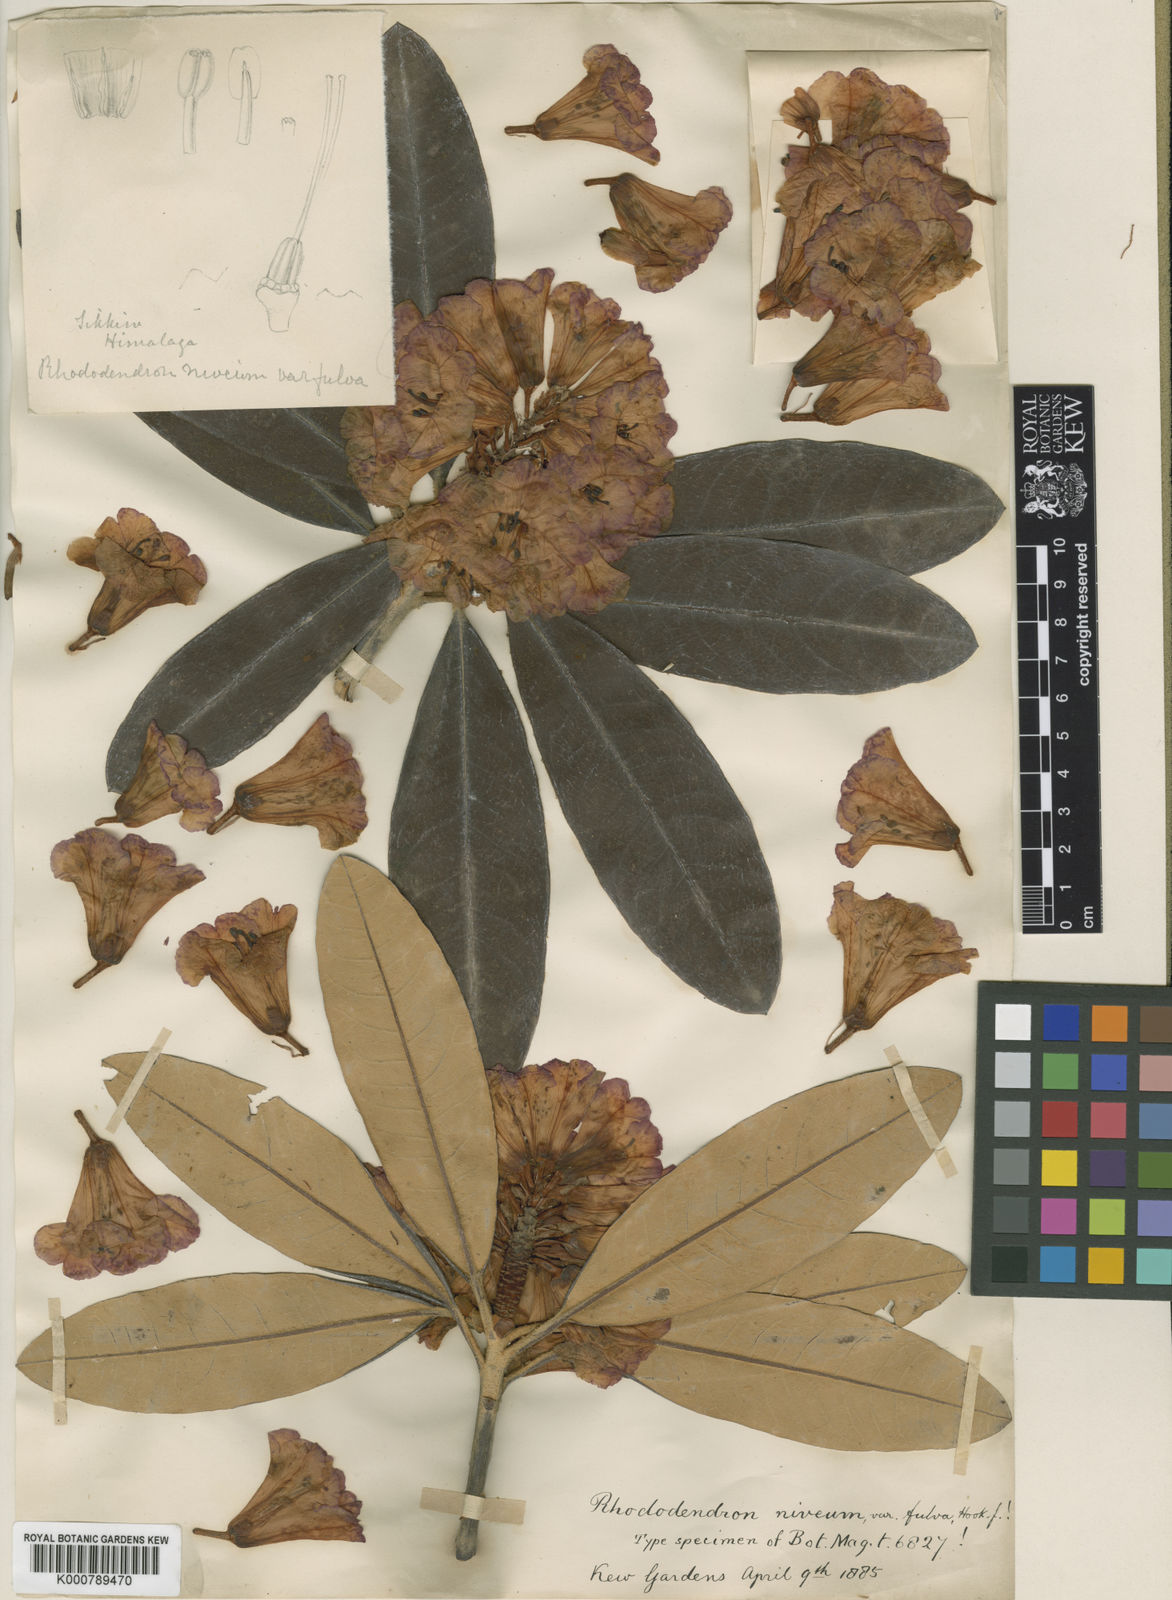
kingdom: Plantae
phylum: Tracheophyta
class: Magnoliopsida
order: Ericales
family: Ericaceae
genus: Rhododendron
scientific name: Rhododendron niveum
